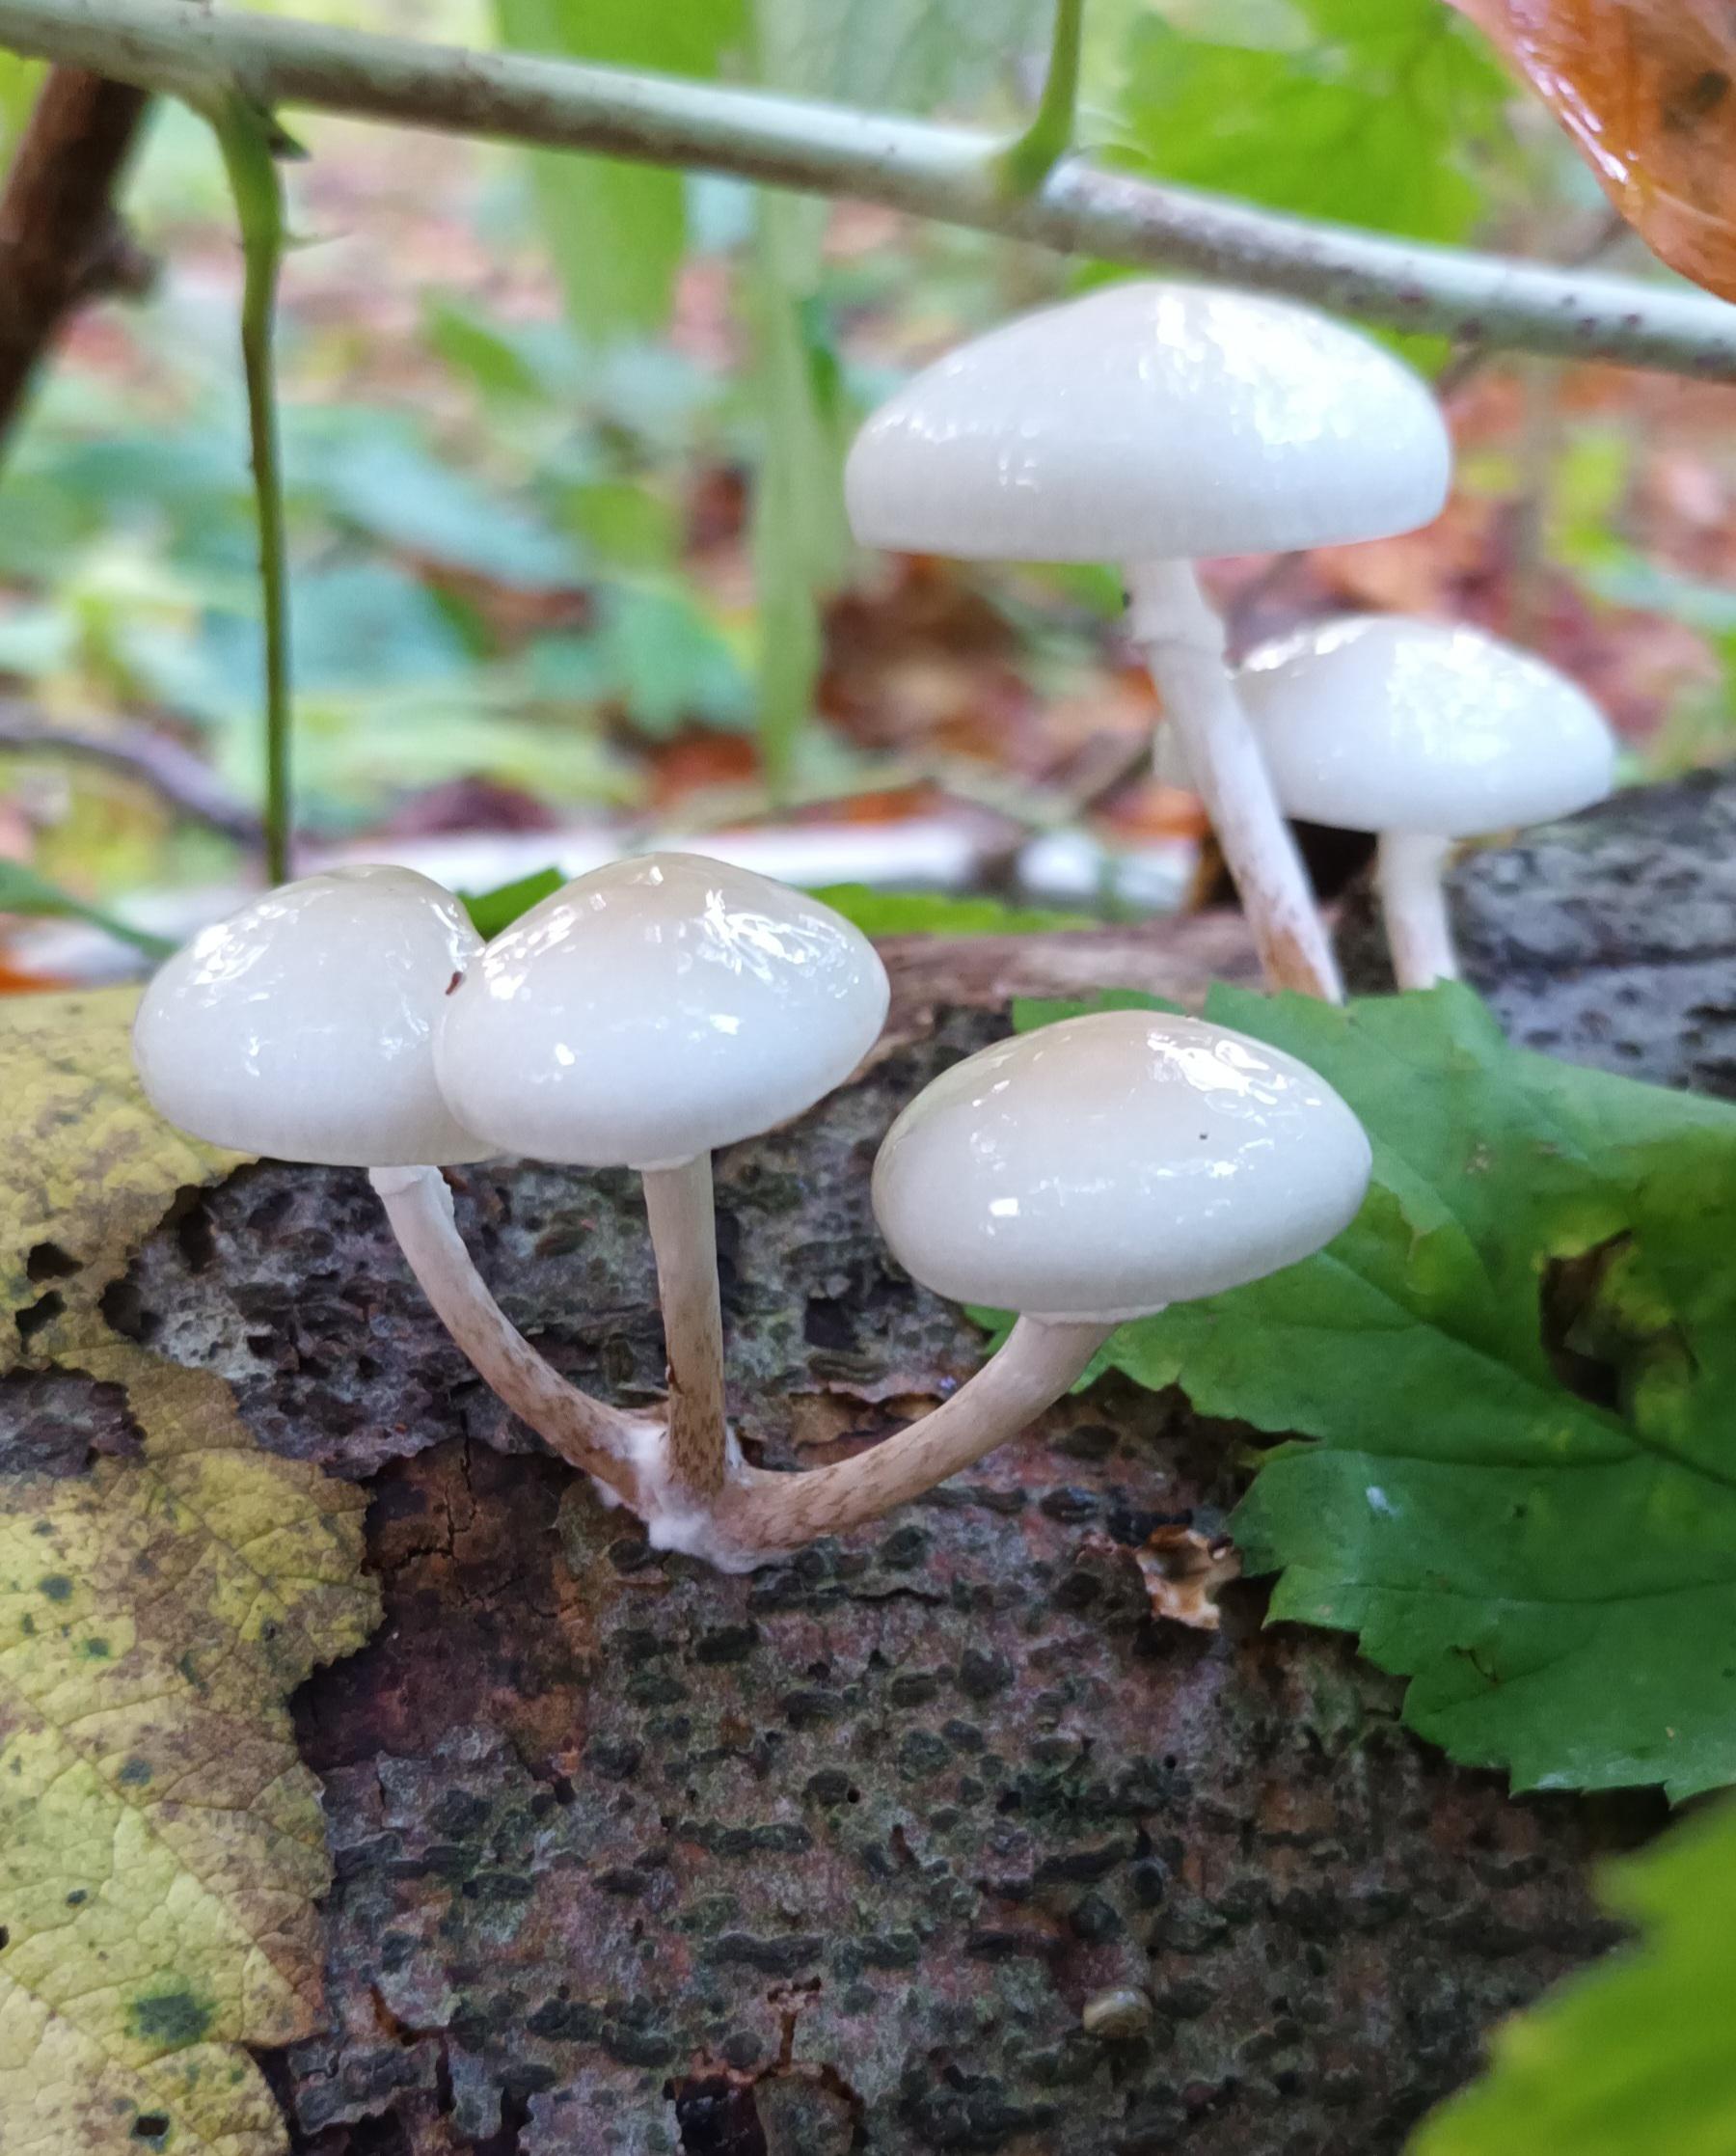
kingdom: Fungi
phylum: Basidiomycota
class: Agaricomycetes
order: Agaricales
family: Physalacriaceae
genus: Mucidula
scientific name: Mucidula mucida
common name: Porcelænshat
